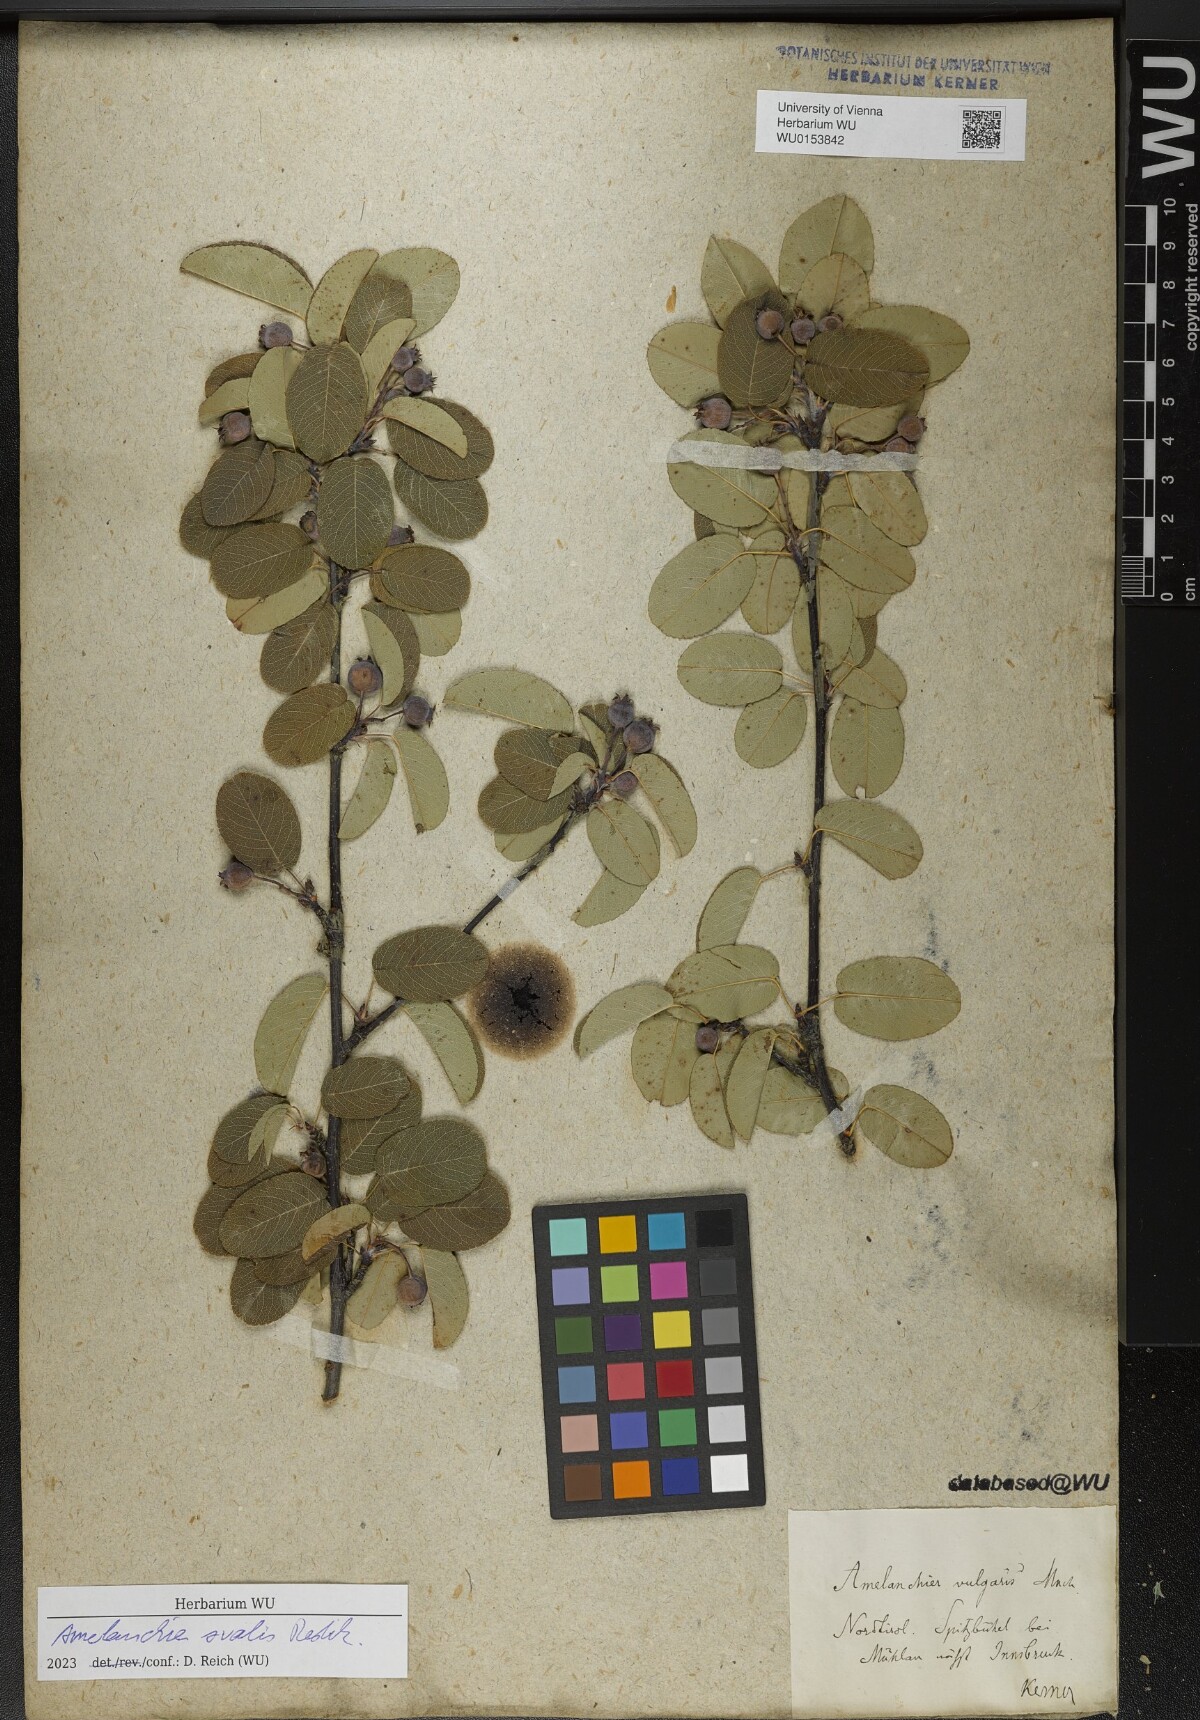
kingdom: Plantae
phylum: Tracheophyta
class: Magnoliopsida
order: Rosales
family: Rosaceae
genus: Amelanchier
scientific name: Amelanchier ovalis
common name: Serviceberry
